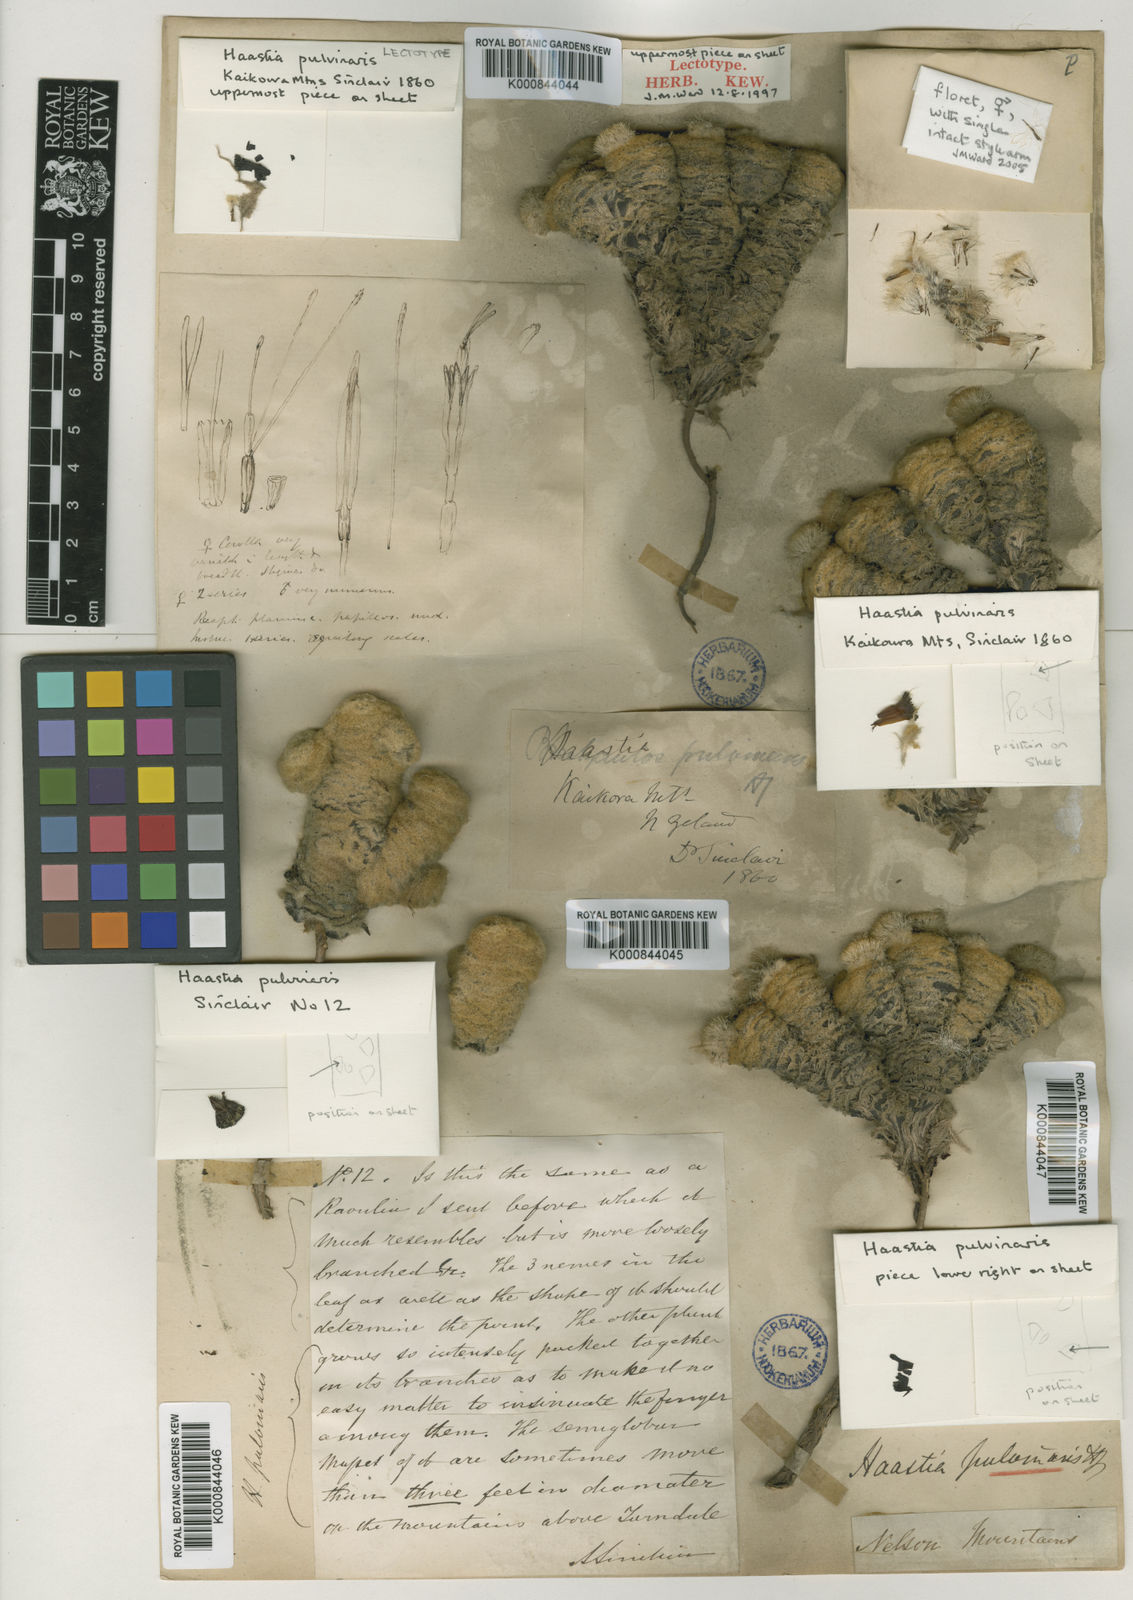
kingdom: Plantae
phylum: Tracheophyta
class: Magnoliopsida
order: Asterales
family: Asteraceae
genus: Haastia
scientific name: Haastia pulvinaris
